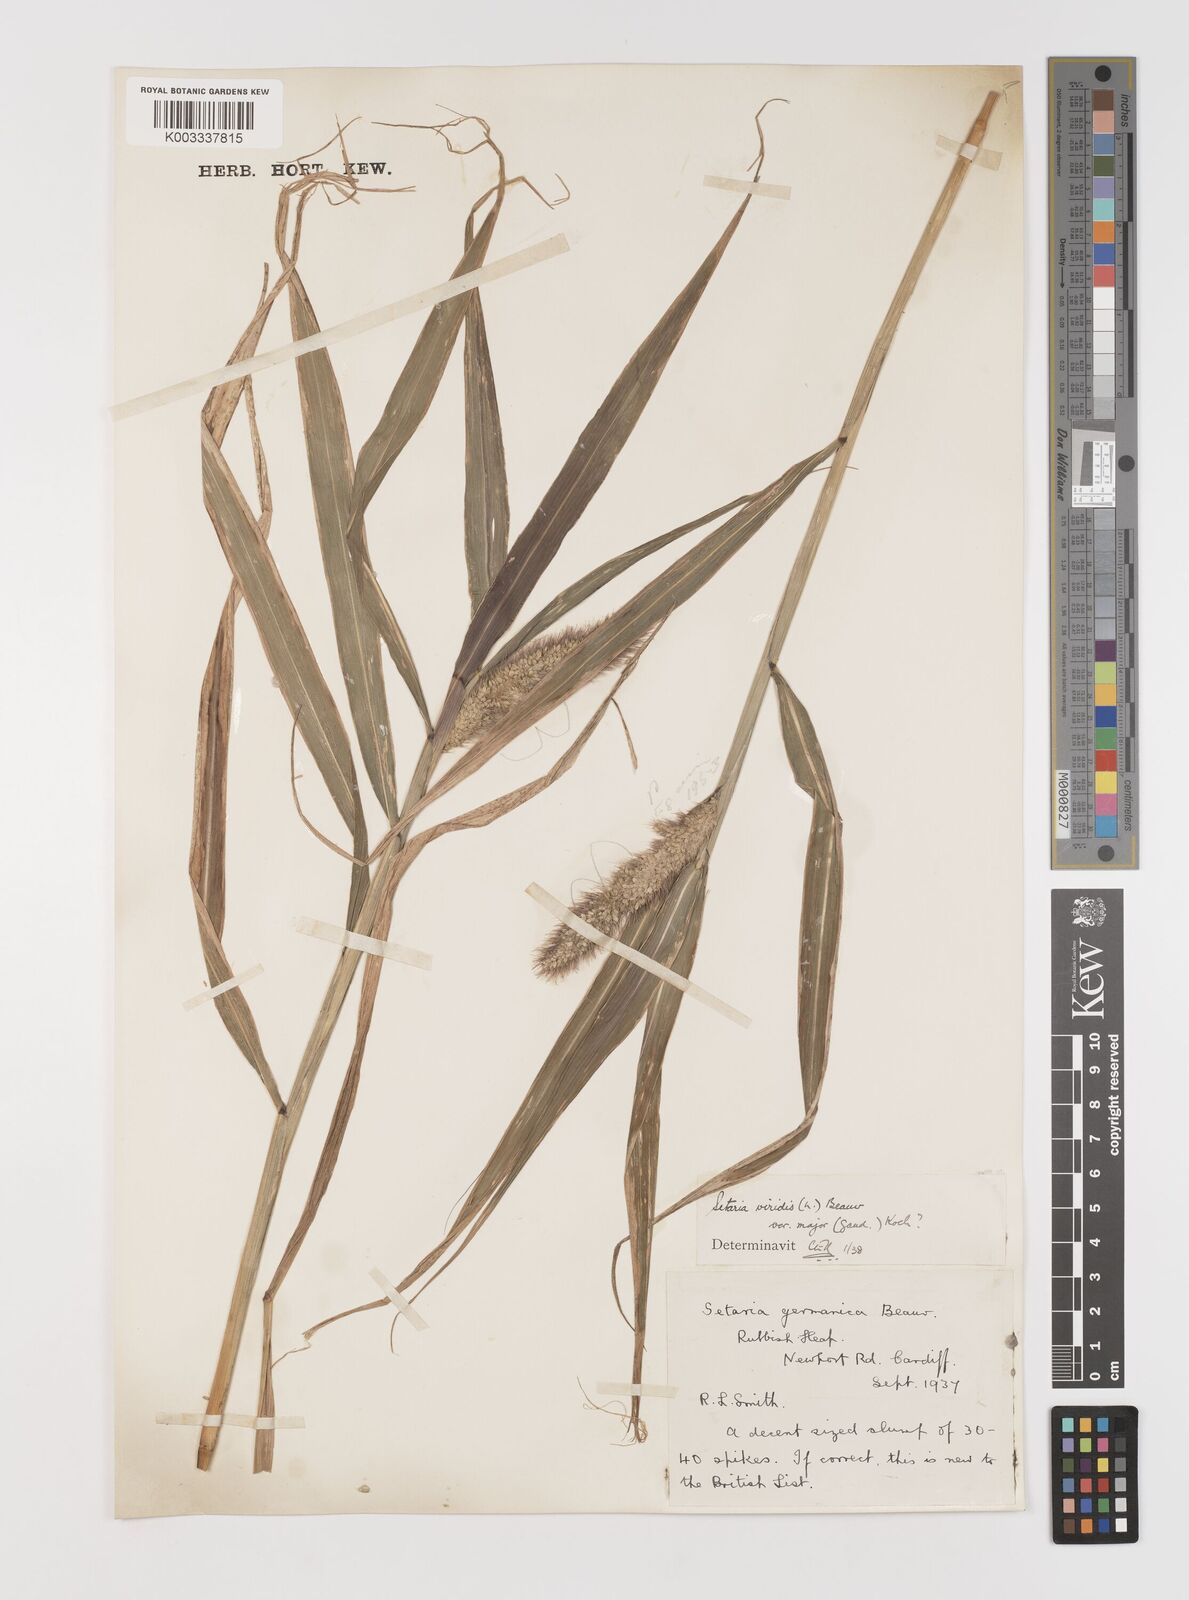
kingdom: Plantae
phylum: Tracheophyta
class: Liliopsida
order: Poales
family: Poaceae
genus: Setaria
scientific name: Setaria viridis
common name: Green bristlegrass
